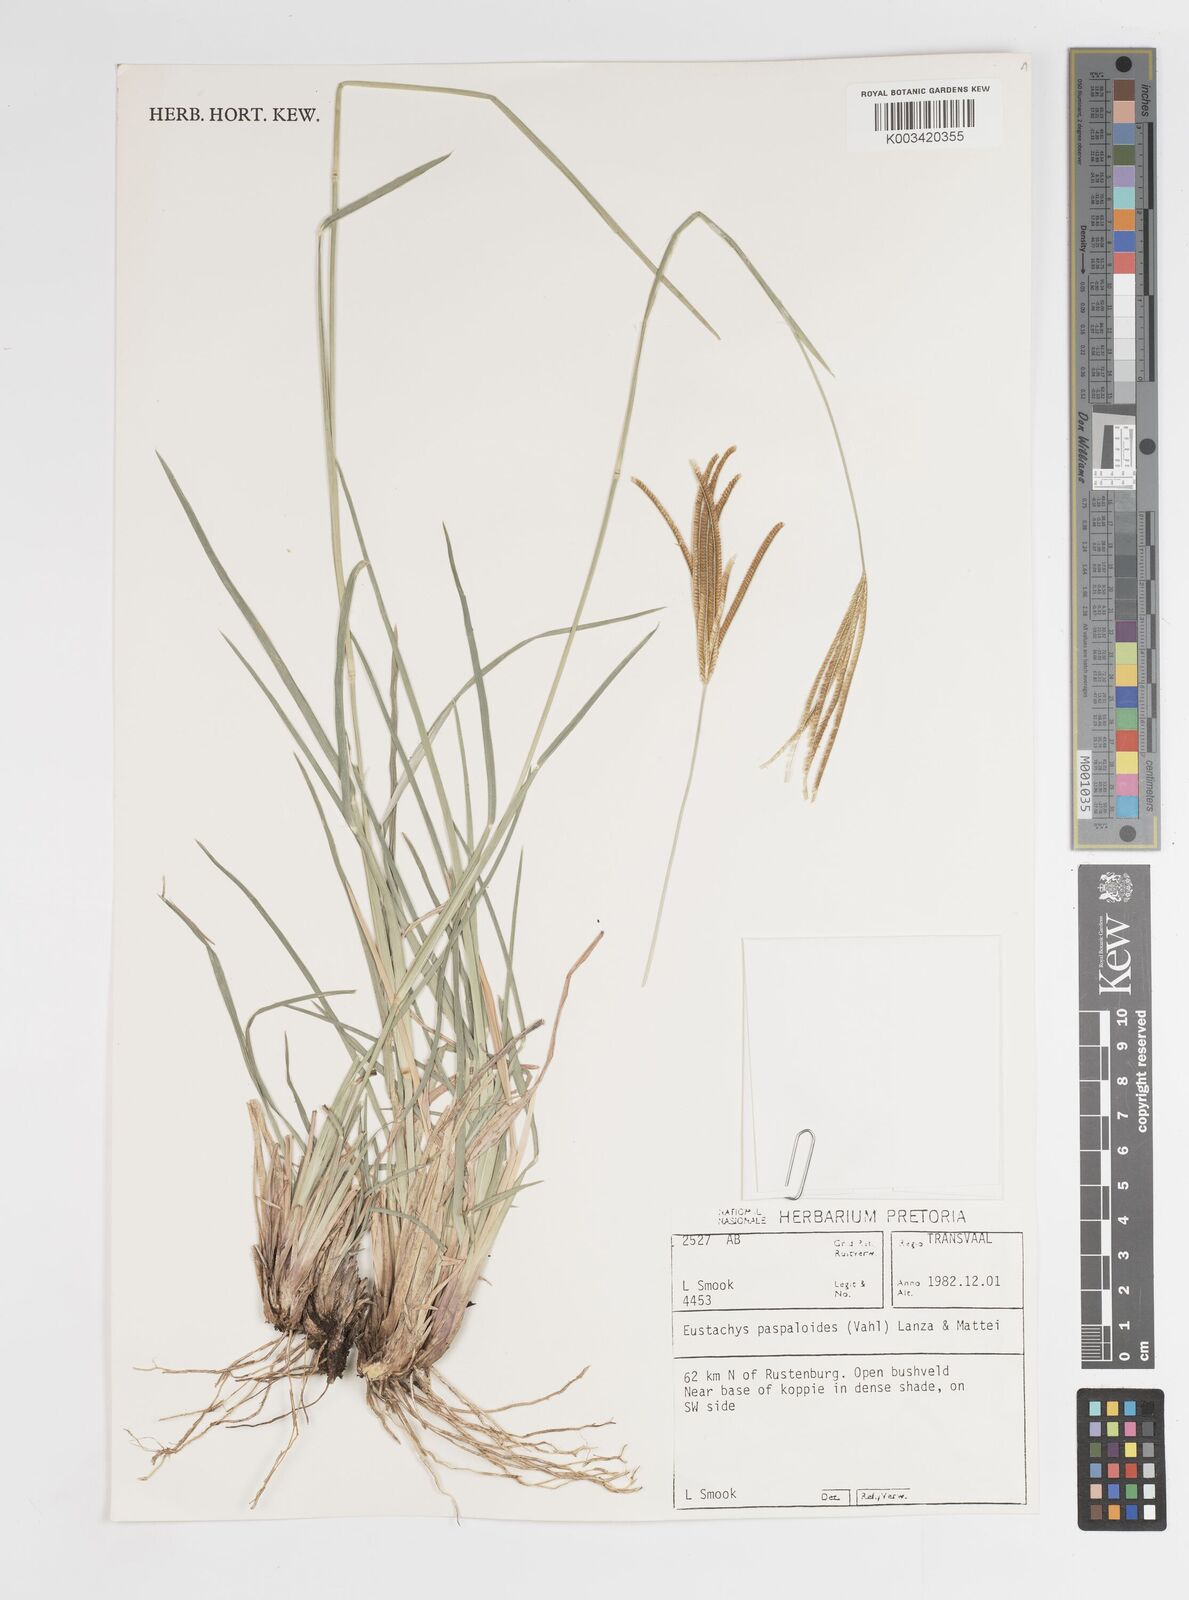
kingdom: Plantae
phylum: Tracheophyta
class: Liliopsida
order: Poales
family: Poaceae
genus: Eustachys
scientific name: Eustachys paspaloides
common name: Caribbean fingergrass
